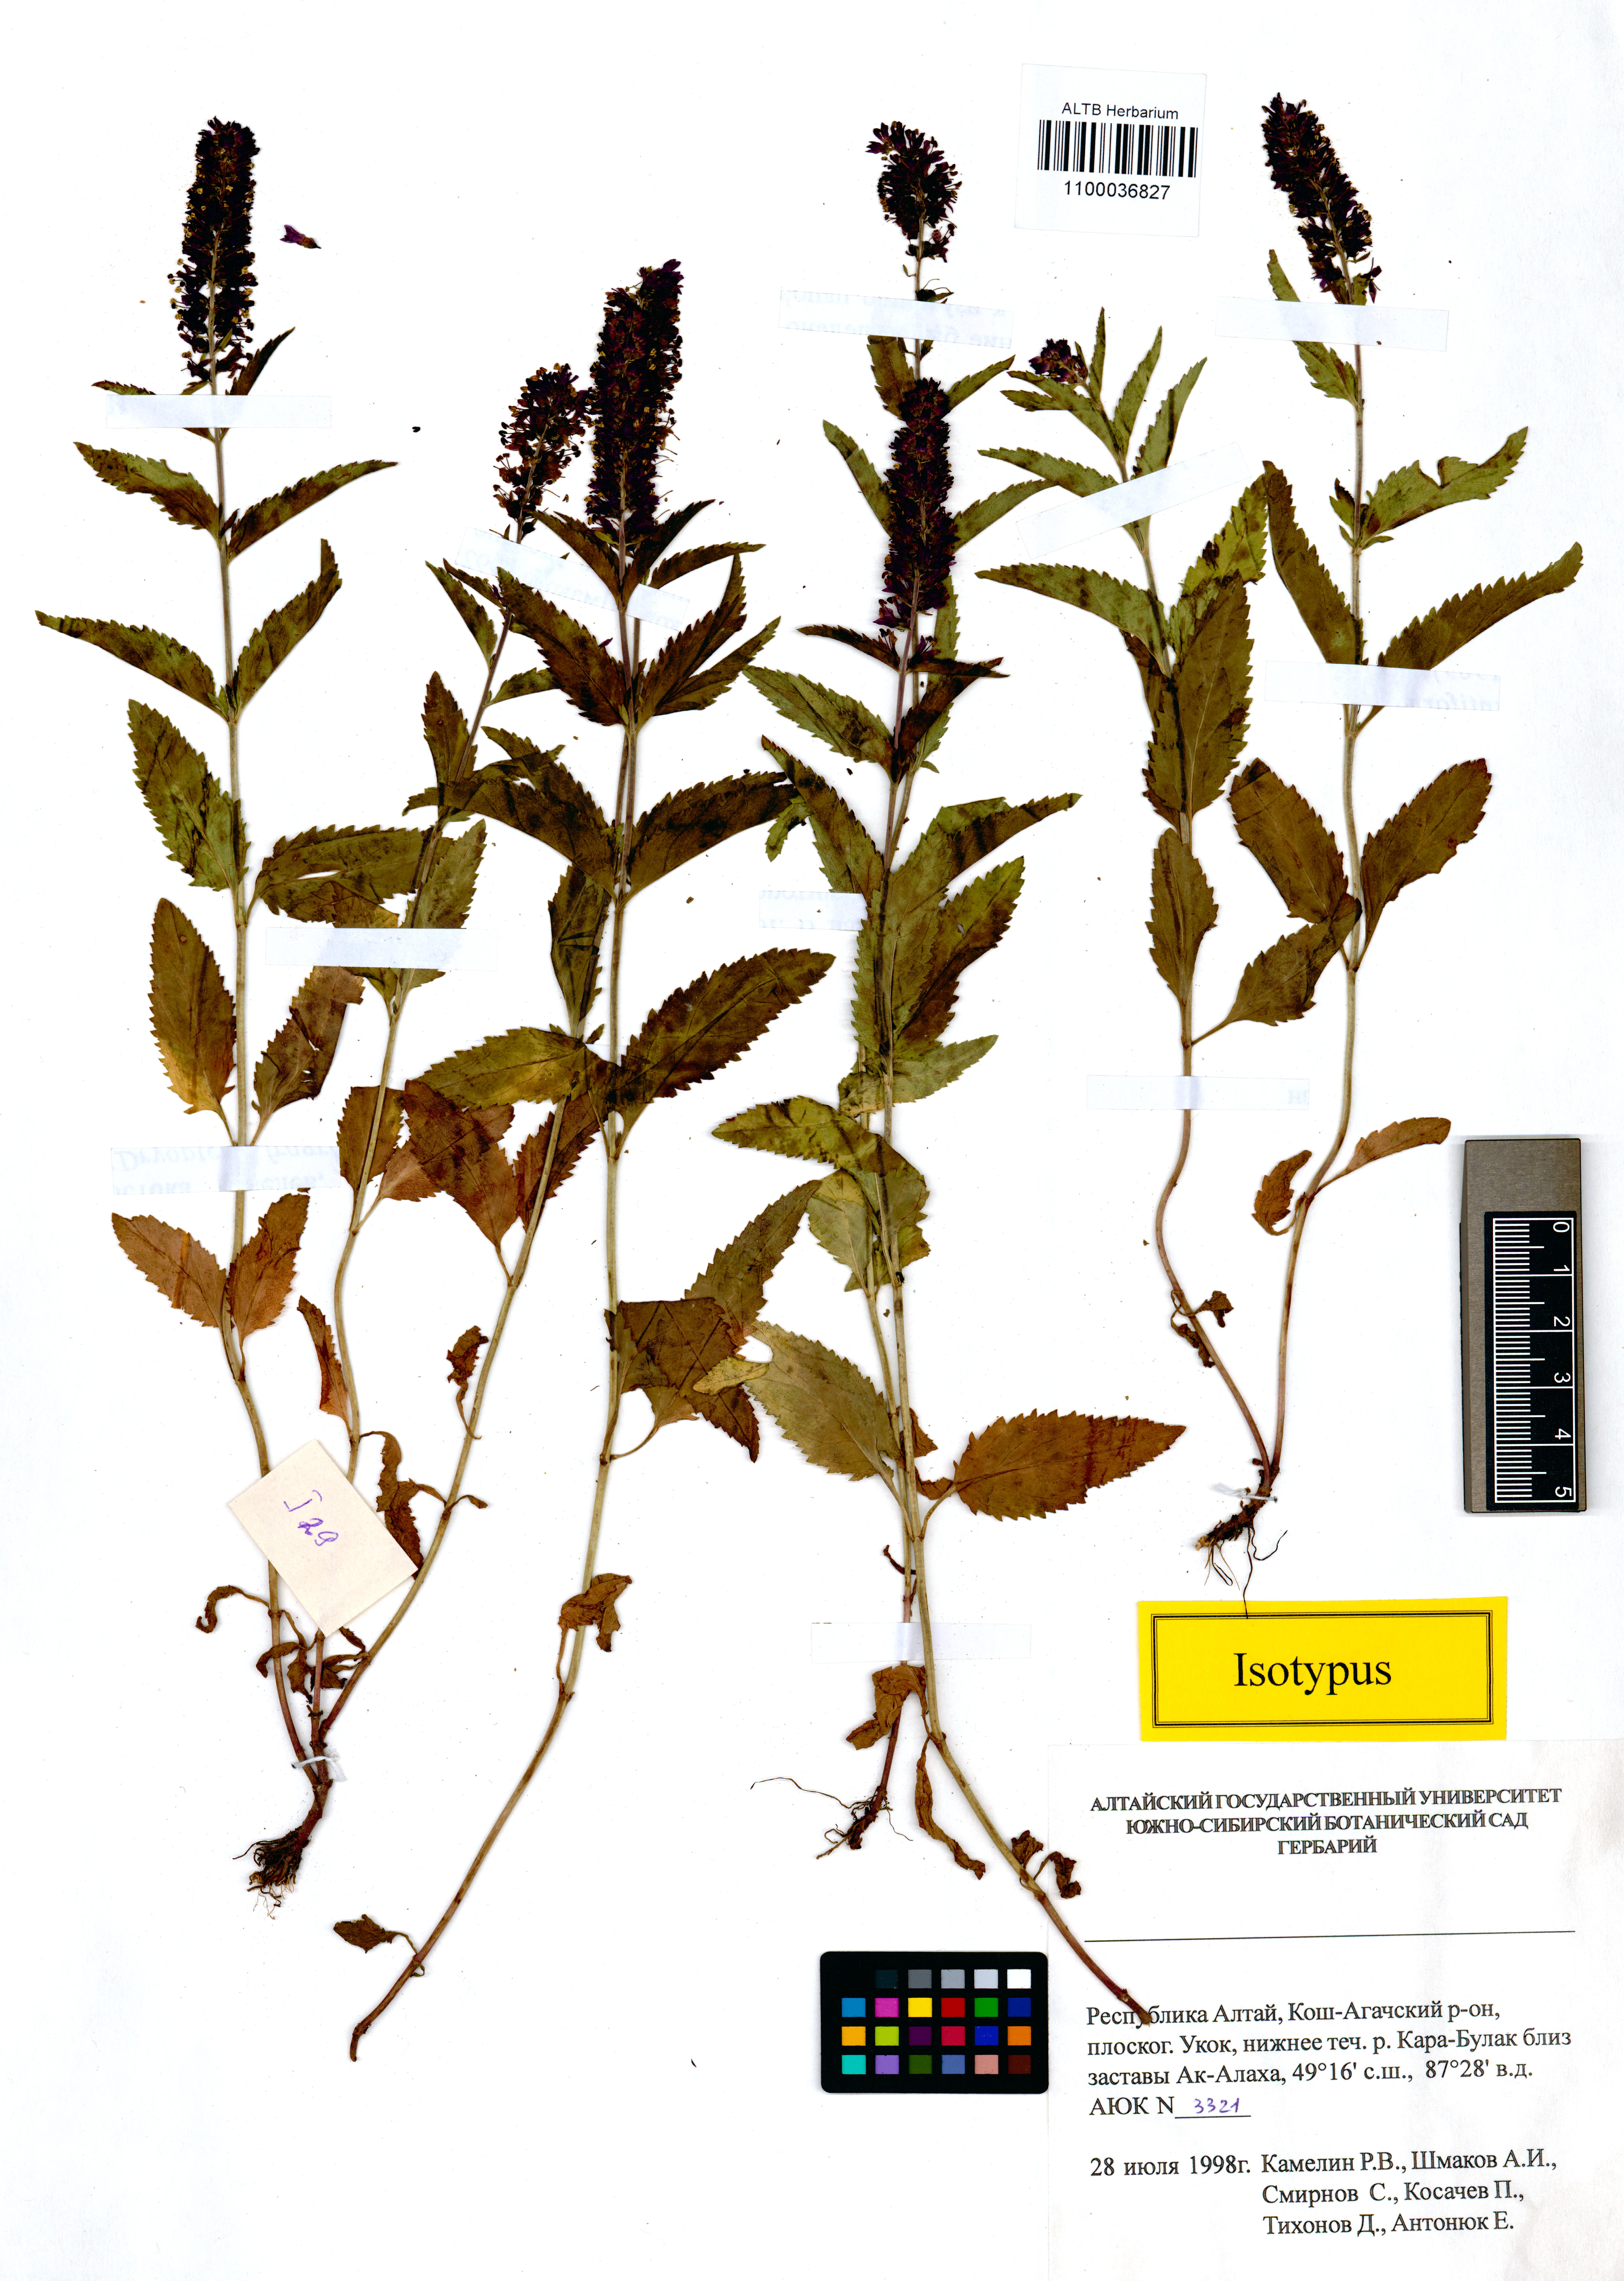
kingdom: Plantae
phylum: Tracheophyta
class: Magnoliopsida
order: Lamiales
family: Plantaginaceae
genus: Veronica
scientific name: Veronica schmakovii
